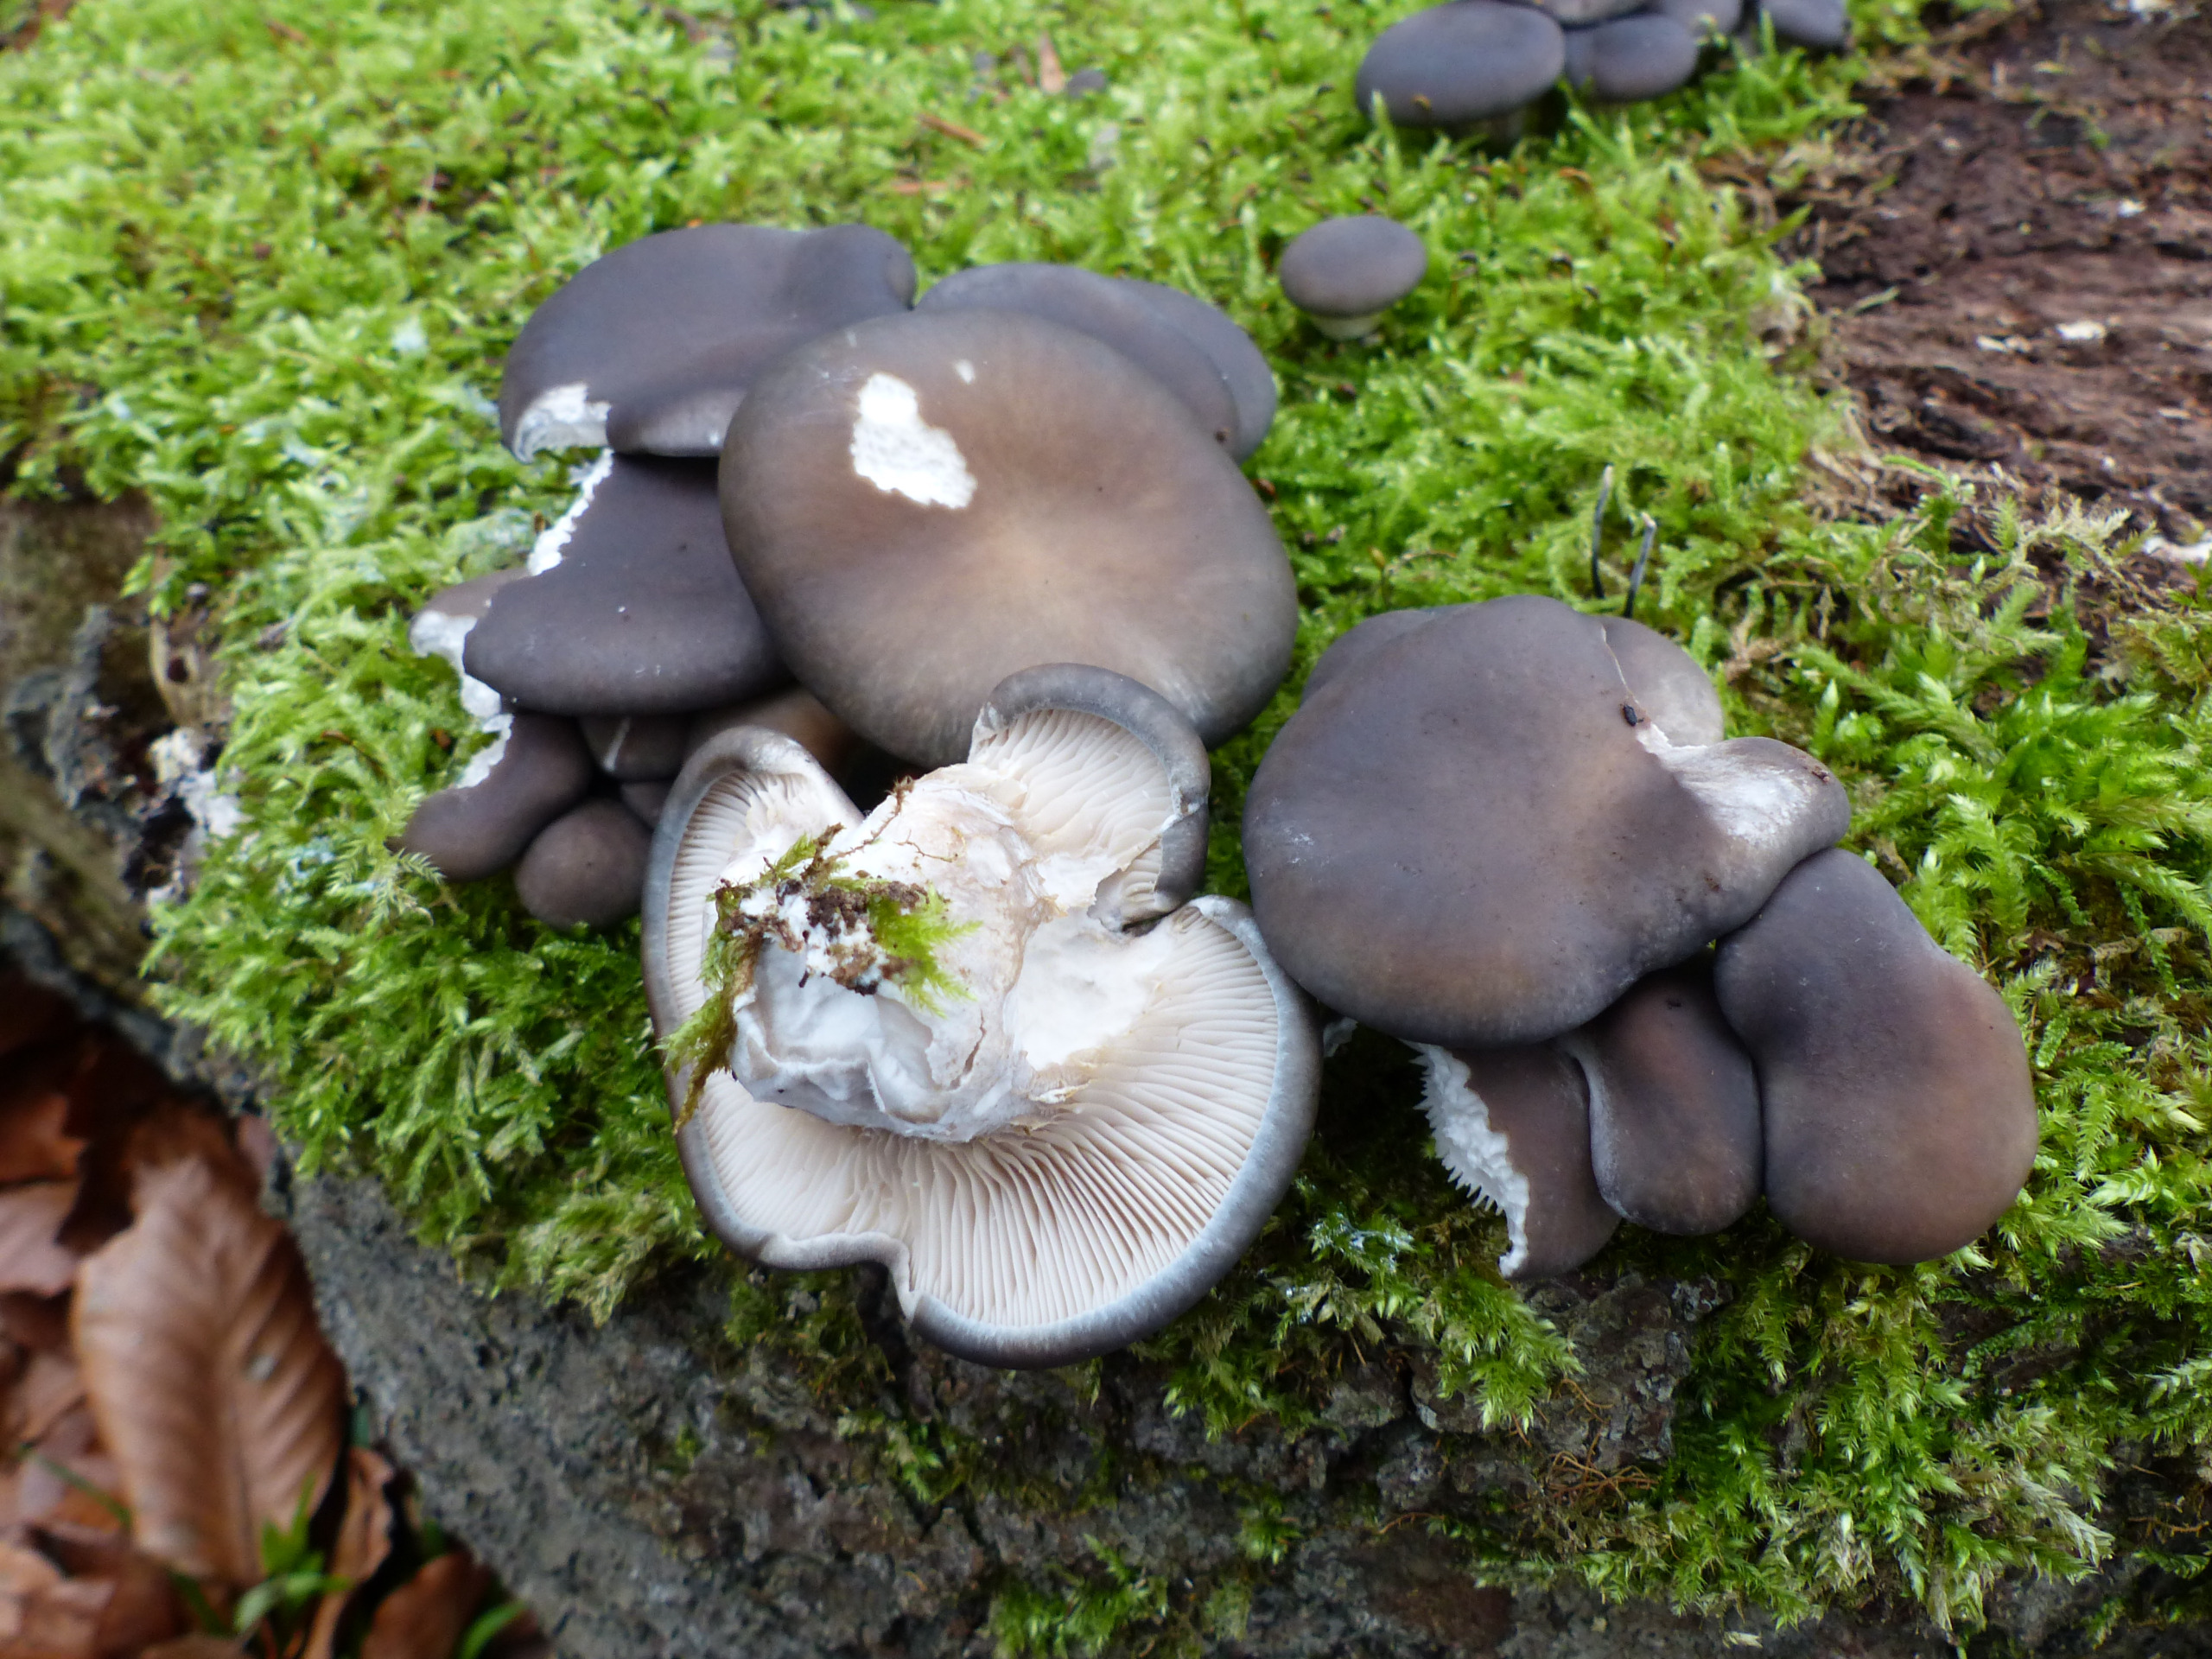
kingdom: Fungi
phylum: Basidiomycota
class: Agaricomycetes
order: Agaricales
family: Pleurotaceae
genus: Pleurotus
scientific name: Pleurotus ostreatus
